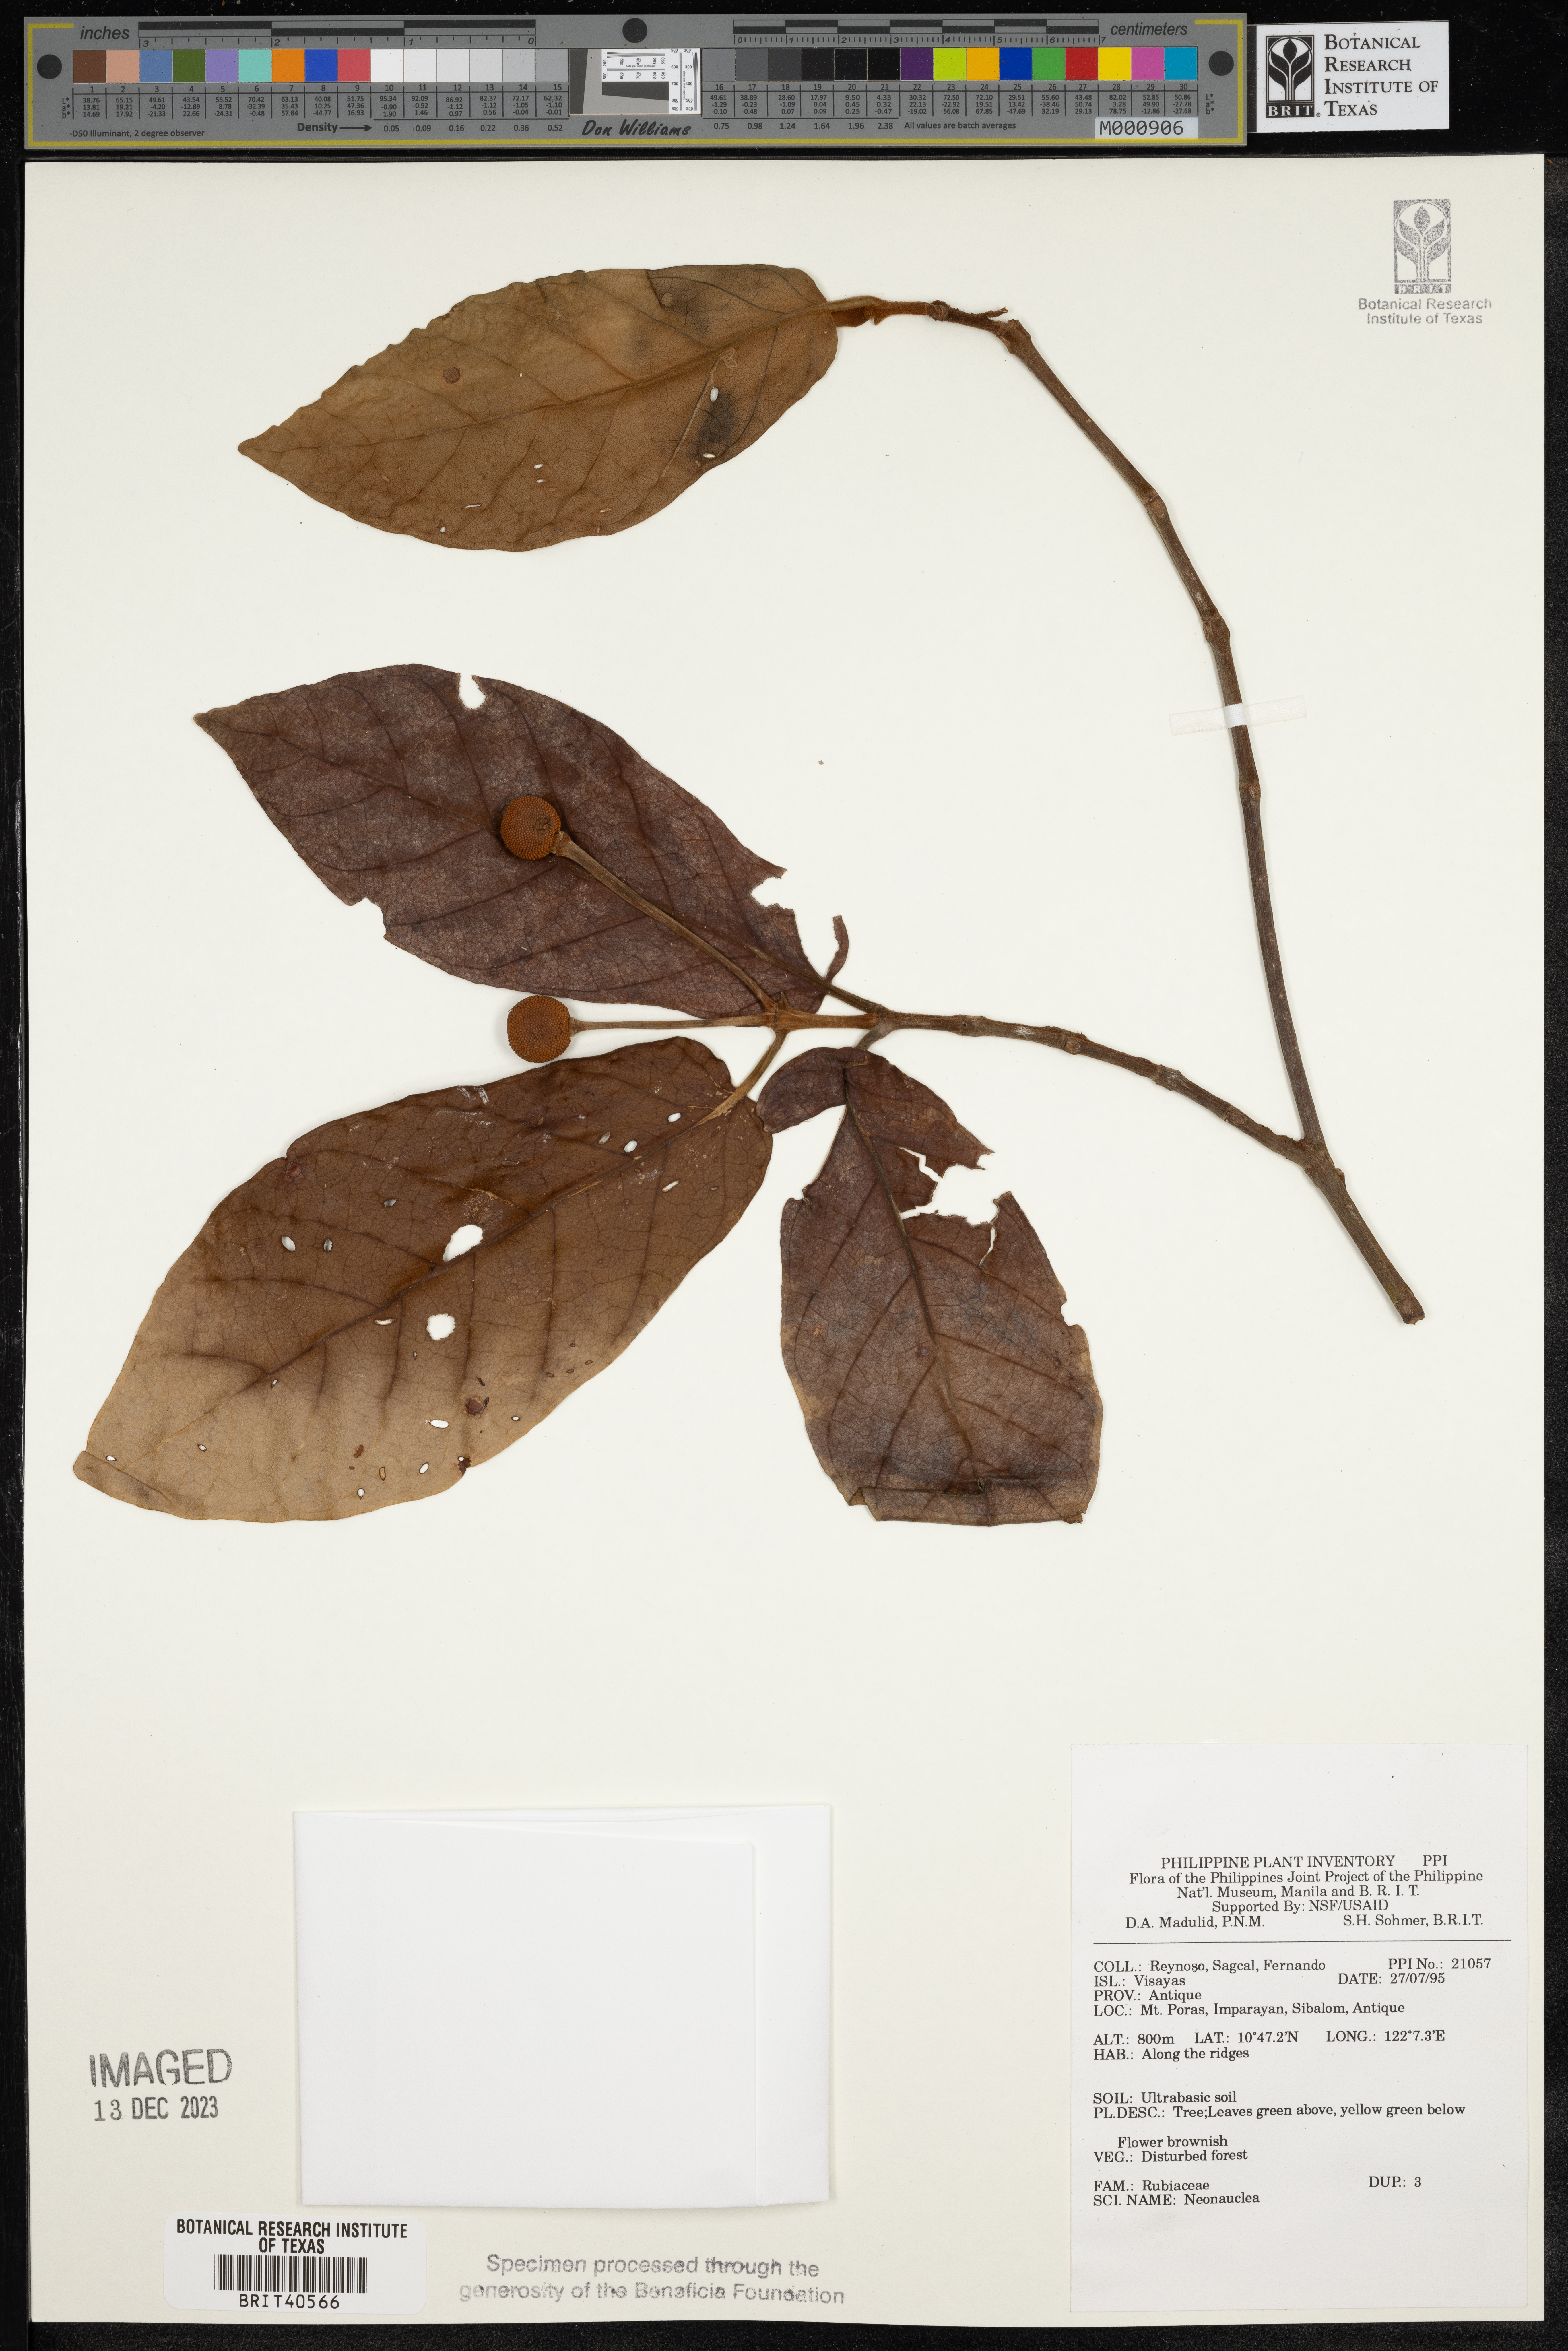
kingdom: Plantae
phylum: Tracheophyta
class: Magnoliopsida
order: Gentianales
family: Rubiaceae
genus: Neonauclea
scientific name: Neonauclea
